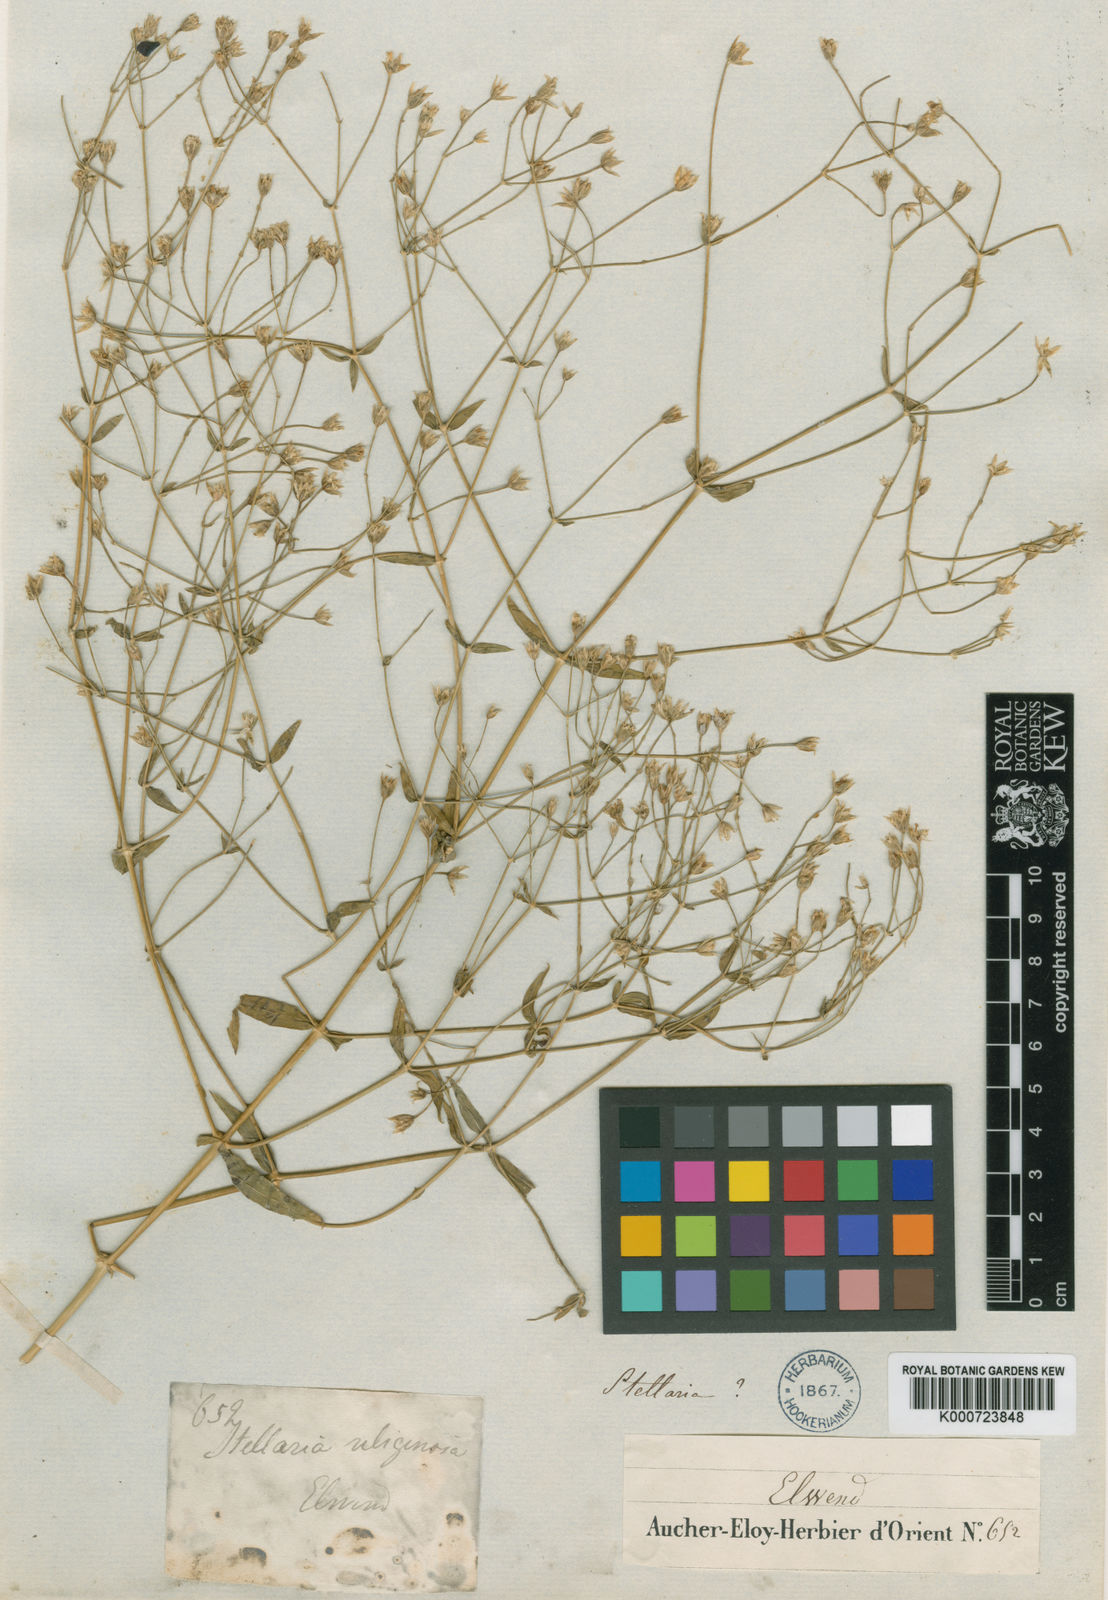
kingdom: Plantae
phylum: Tracheophyta
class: Magnoliopsida
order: Caryophyllales
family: Caryophyllaceae
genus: Mesostemma
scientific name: Mesostemma platyphyllum
